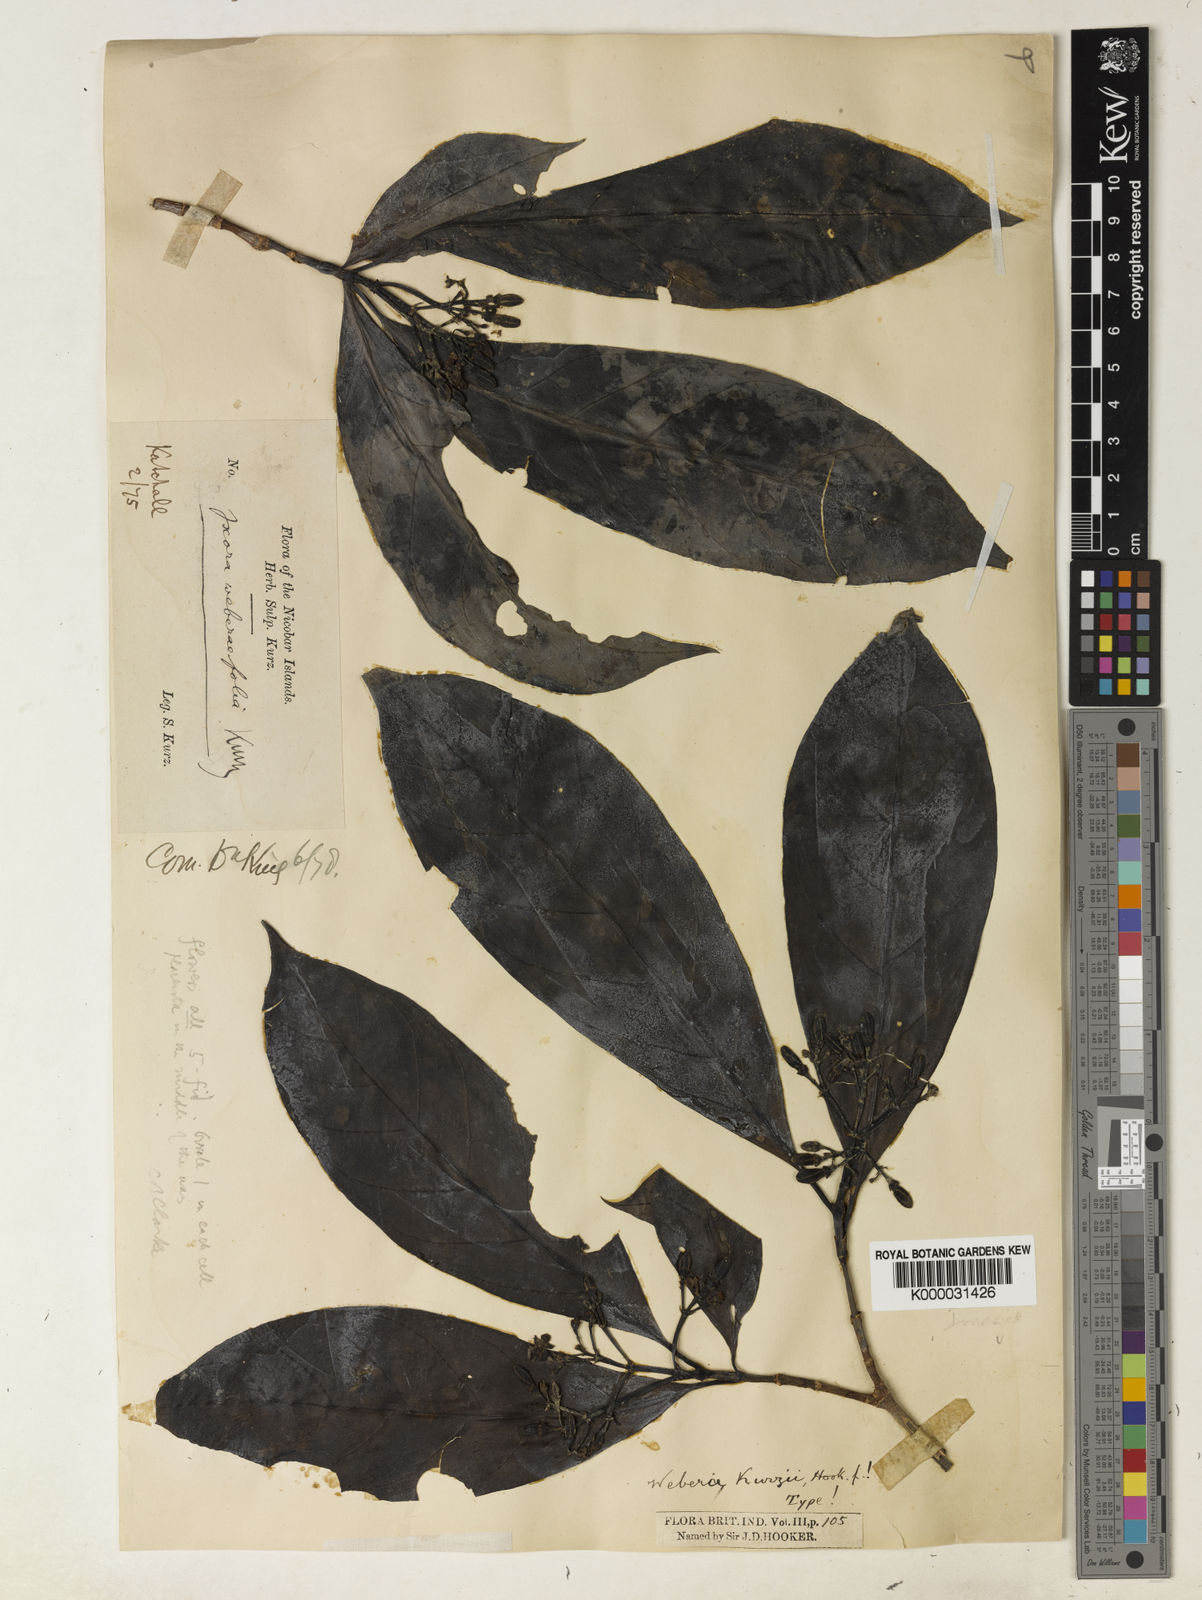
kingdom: Plantae
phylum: Tracheophyta
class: Magnoliopsida
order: Gentianales
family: Rubiaceae
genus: Tarenna
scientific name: Tarenna
